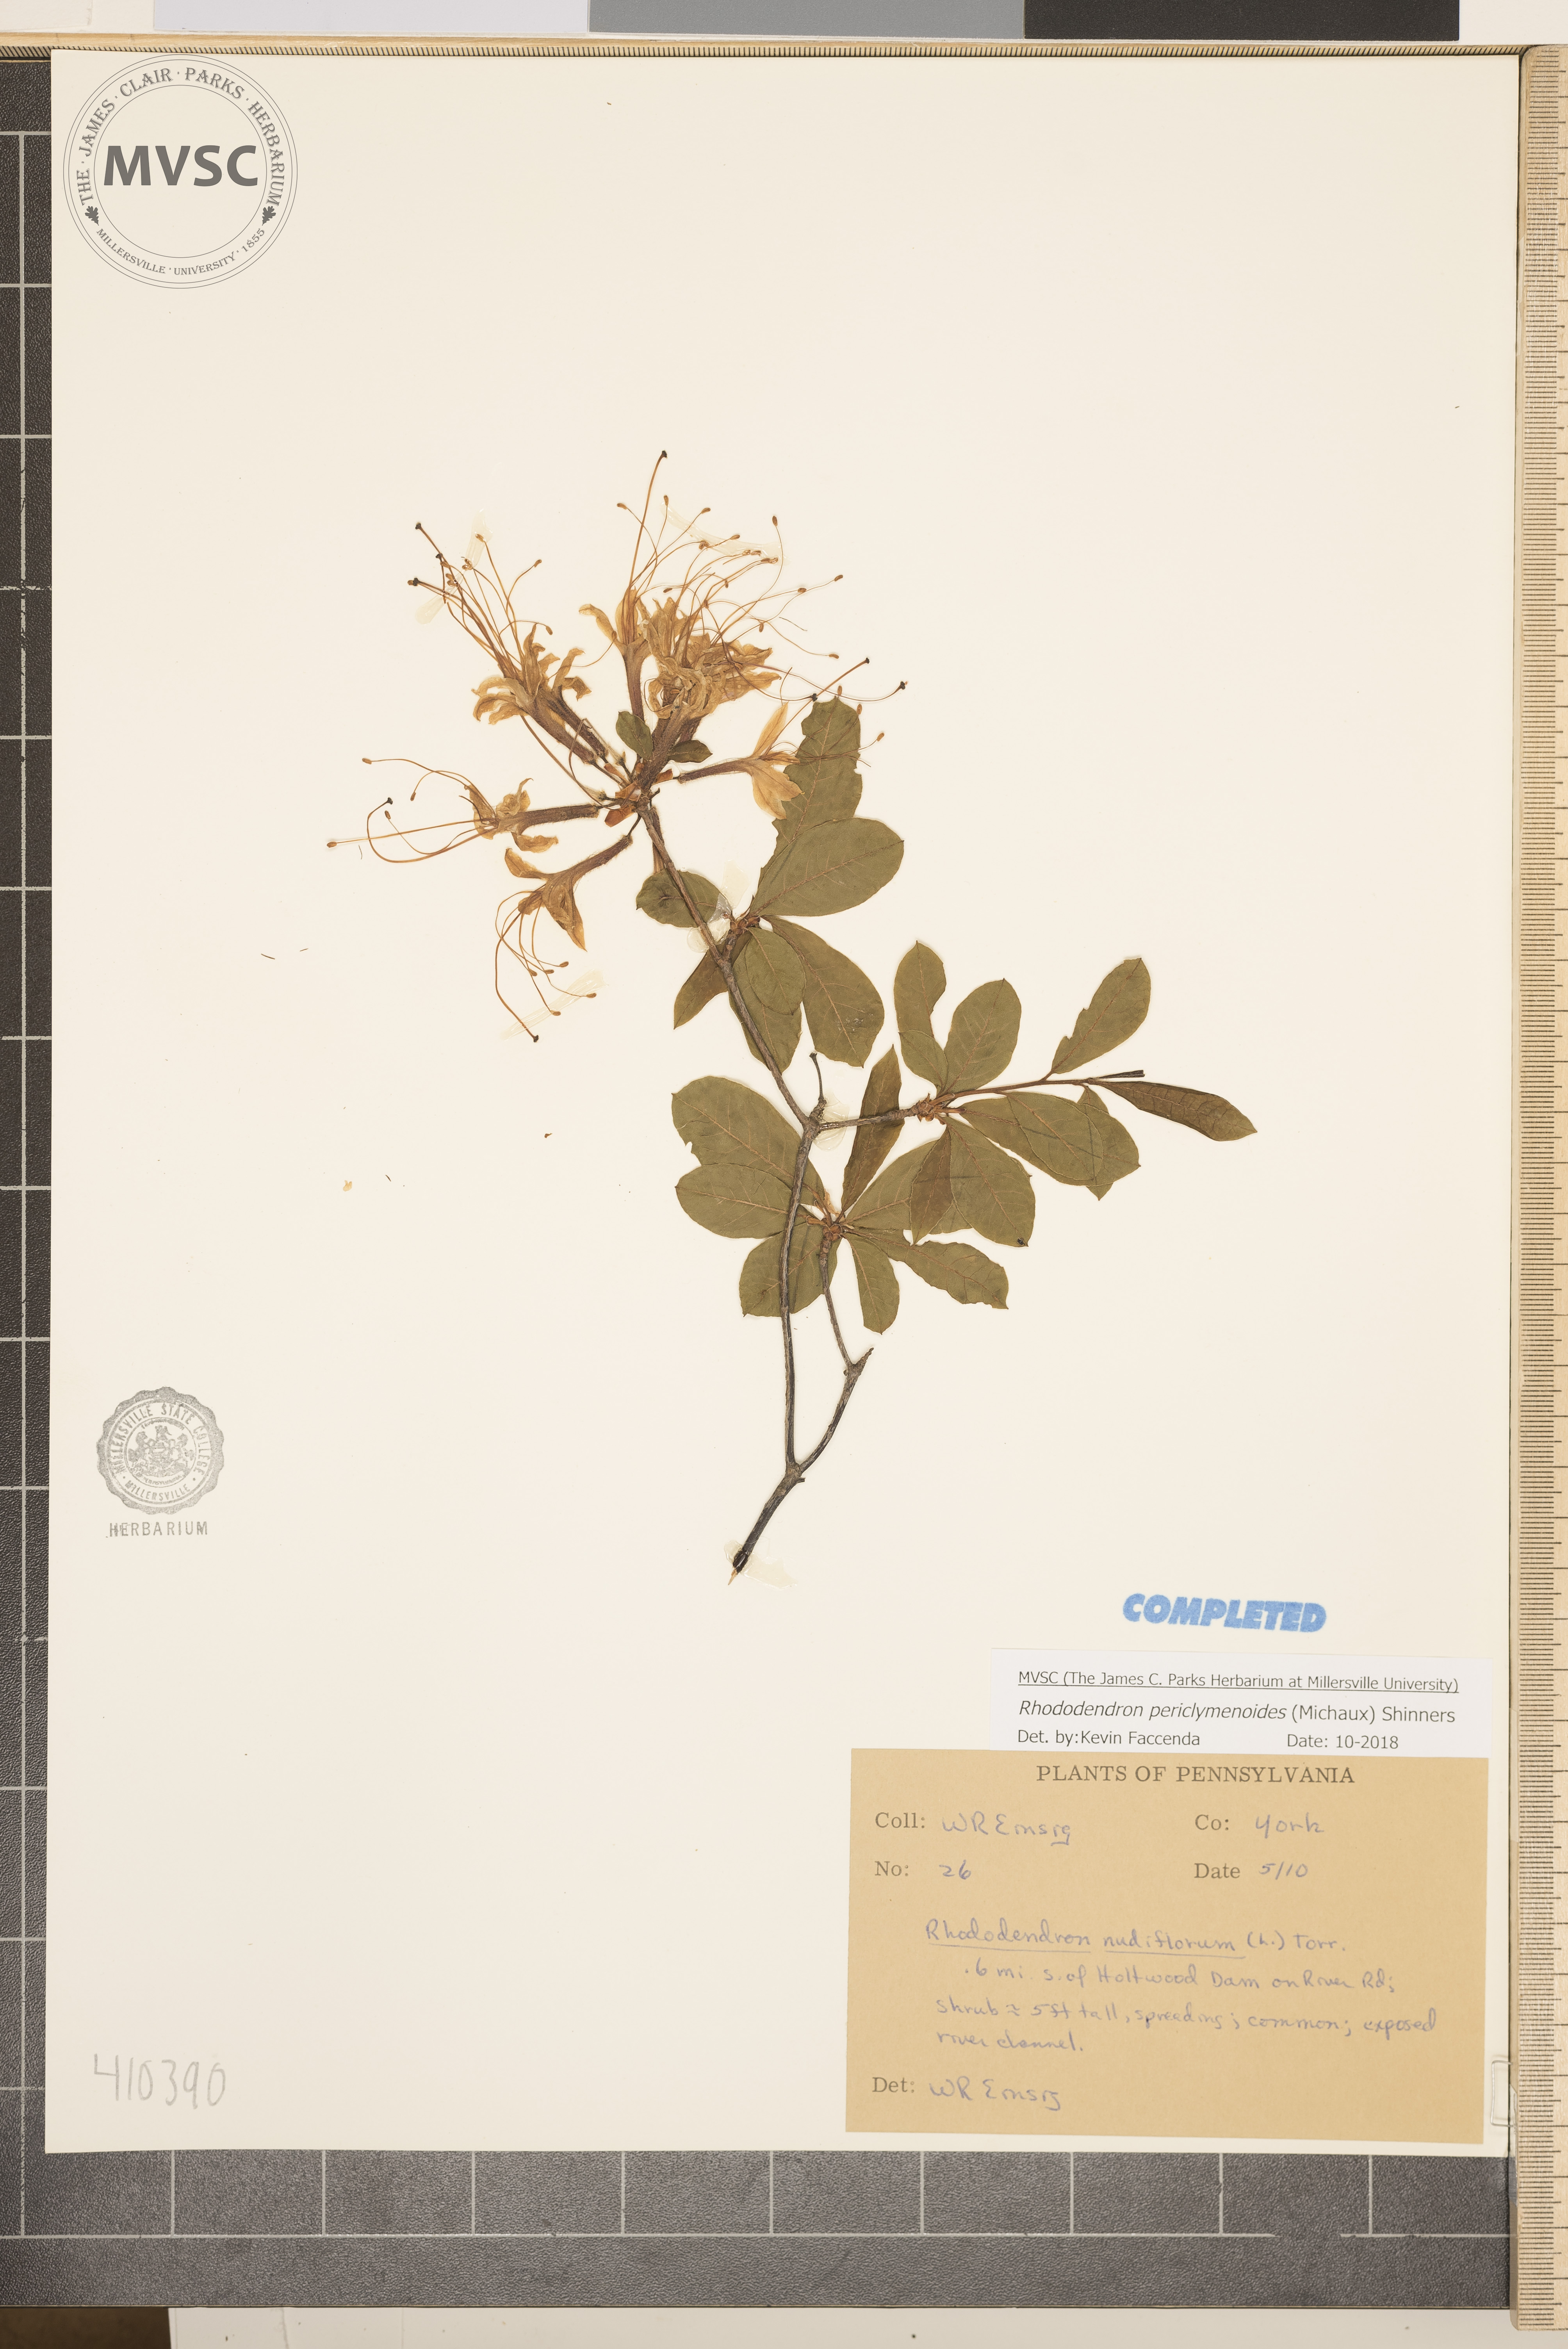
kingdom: Plantae
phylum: Tracheophyta
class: Magnoliopsida
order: Ericales
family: Ericaceae
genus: Rhododendron
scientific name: Rhododendron periclymenoides
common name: Election-pink
